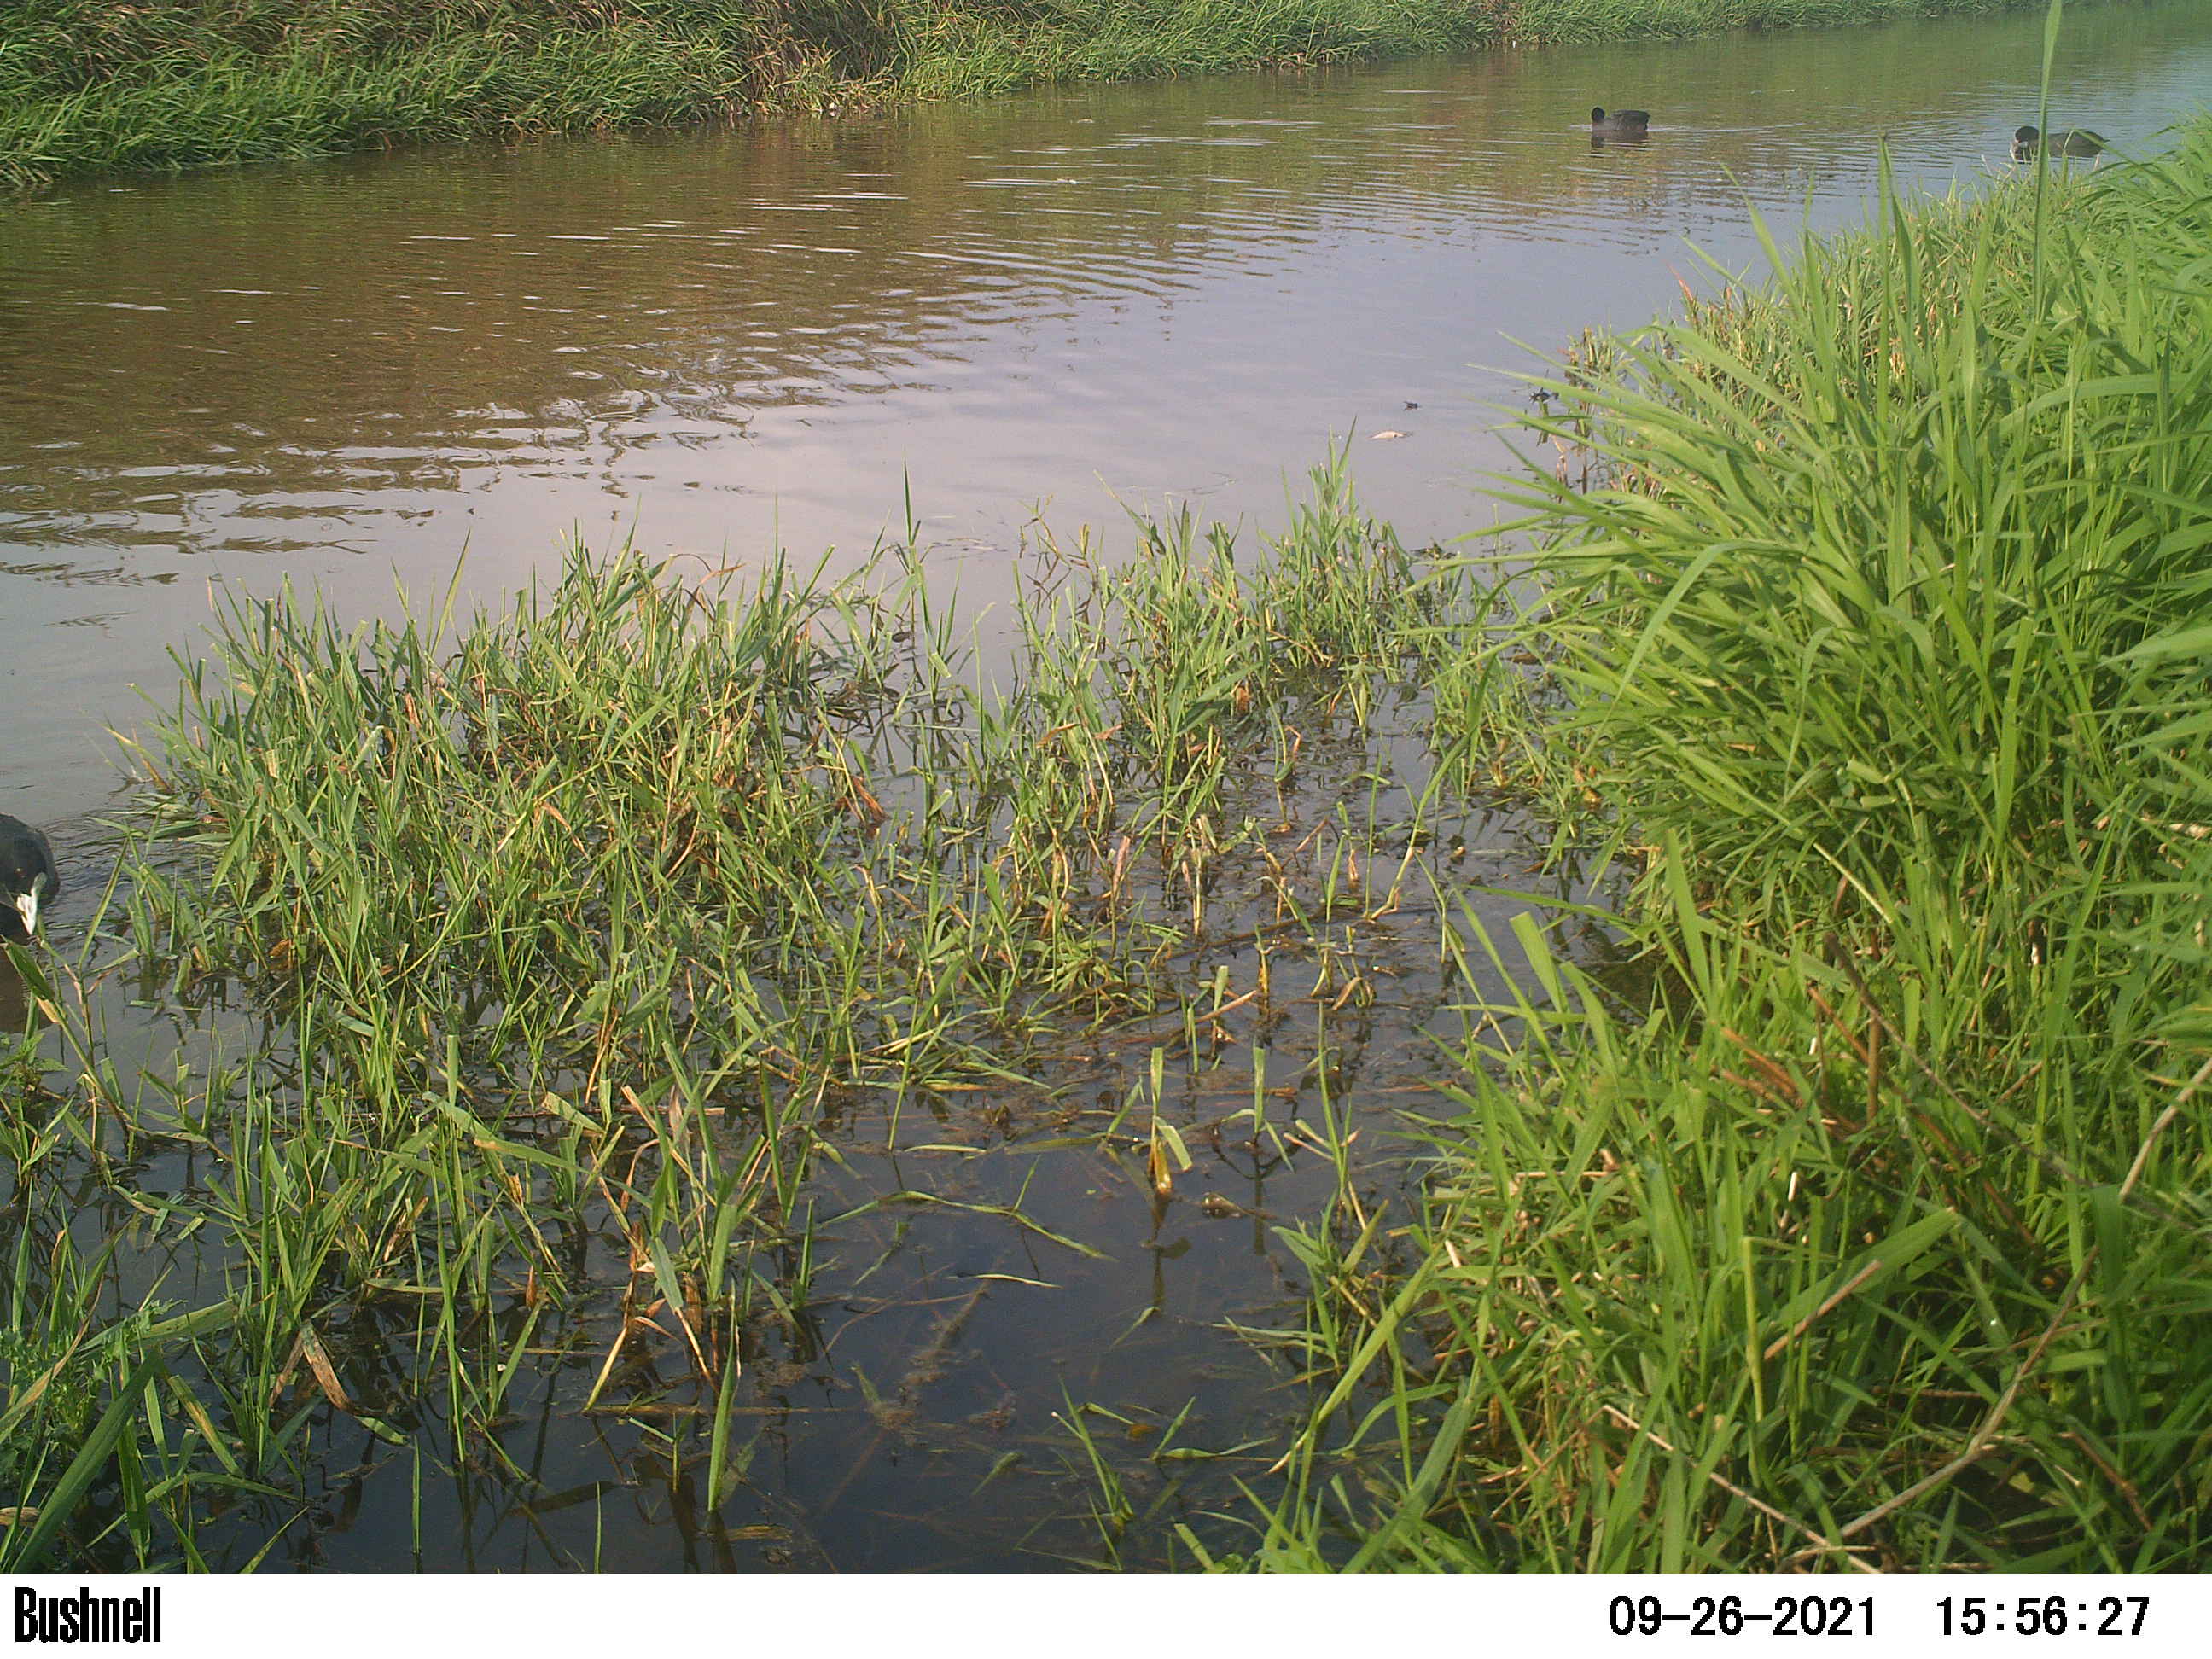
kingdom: Animalia
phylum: Chordata
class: Aves
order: Gruiformes
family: Rallidae
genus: Fulica
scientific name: Fulica atra
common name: Eurasian coot
